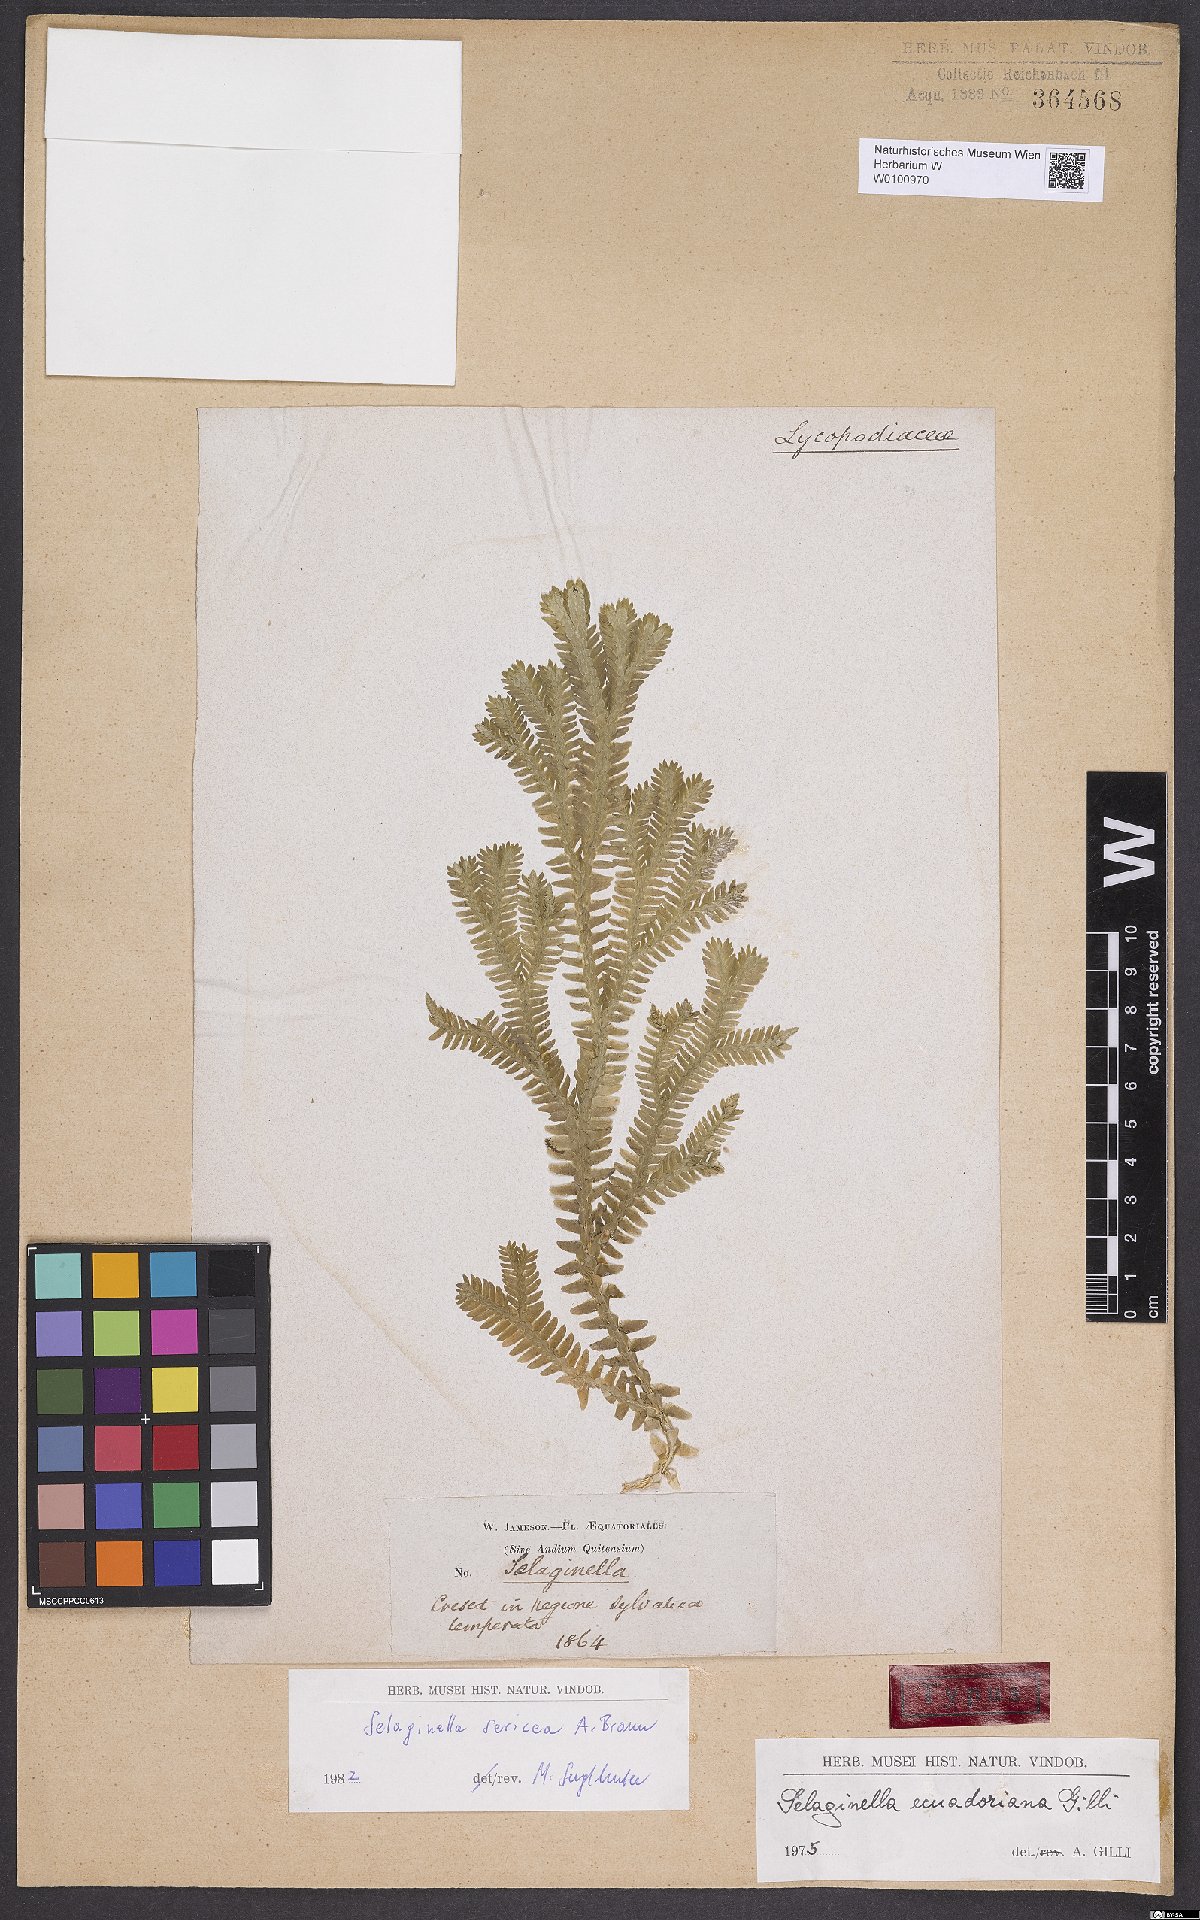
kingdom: Plantae
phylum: Tracheophyta
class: Lycopodiopsida
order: Selaginellales
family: Selaginellaceae
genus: Selaginella
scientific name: Selaginella ecuadoriana
